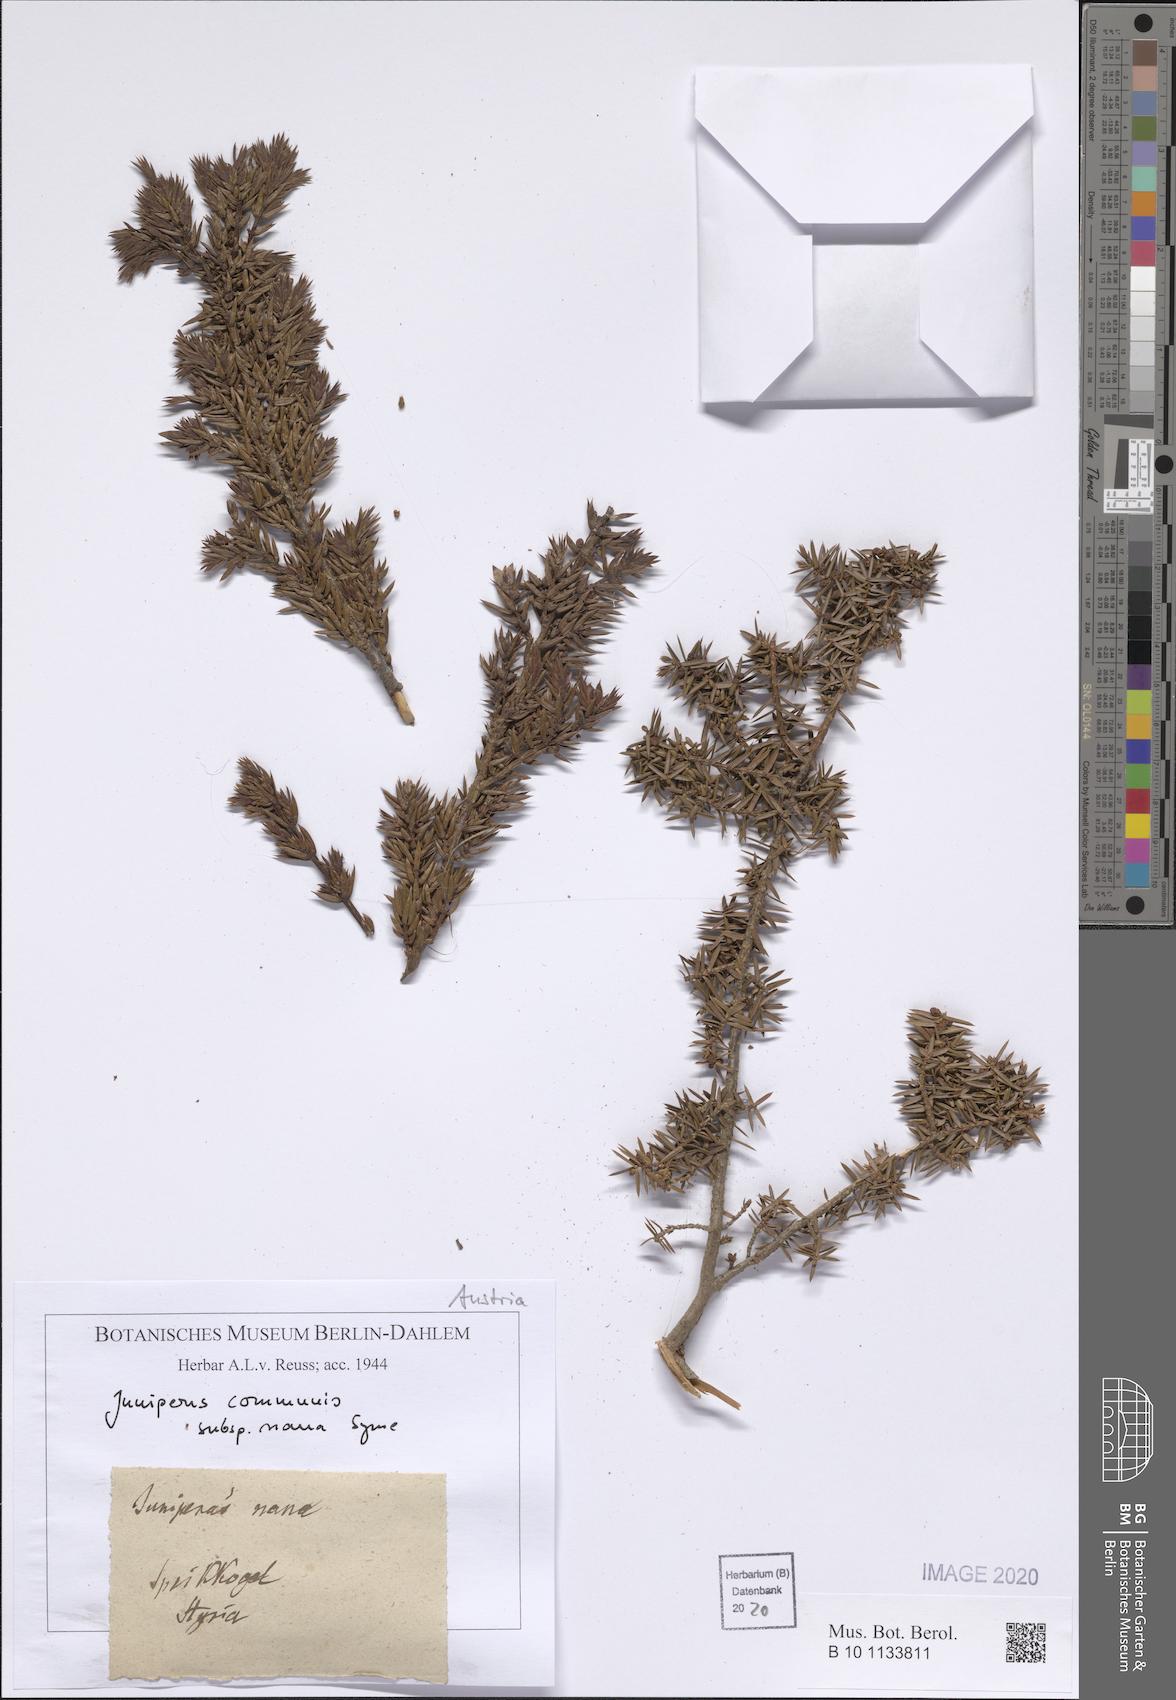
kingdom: Plantae
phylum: Tracheophyta
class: Pinopsida
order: Pinales
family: Cupressaceae
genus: Juniperus
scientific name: Juniperus communis
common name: Common juniper
